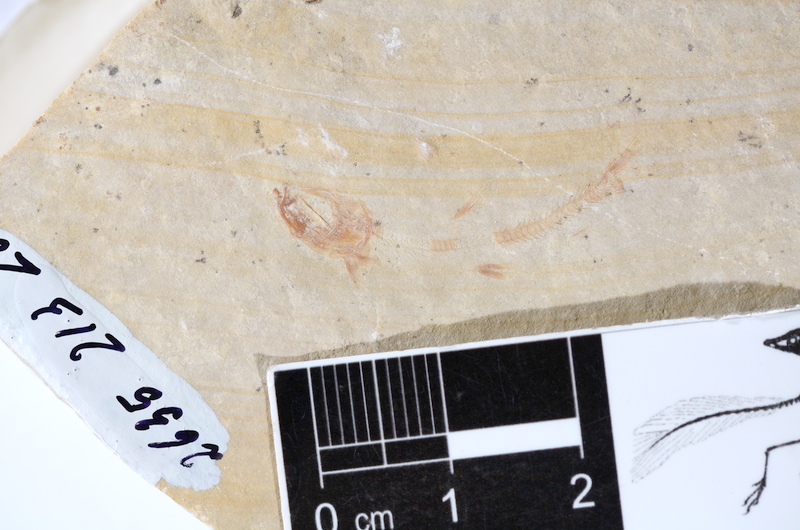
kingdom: Animalia
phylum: Chordata
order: Salmoniformes
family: Orthogonikleithridae
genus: Leptolepides
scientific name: Leptolepides
